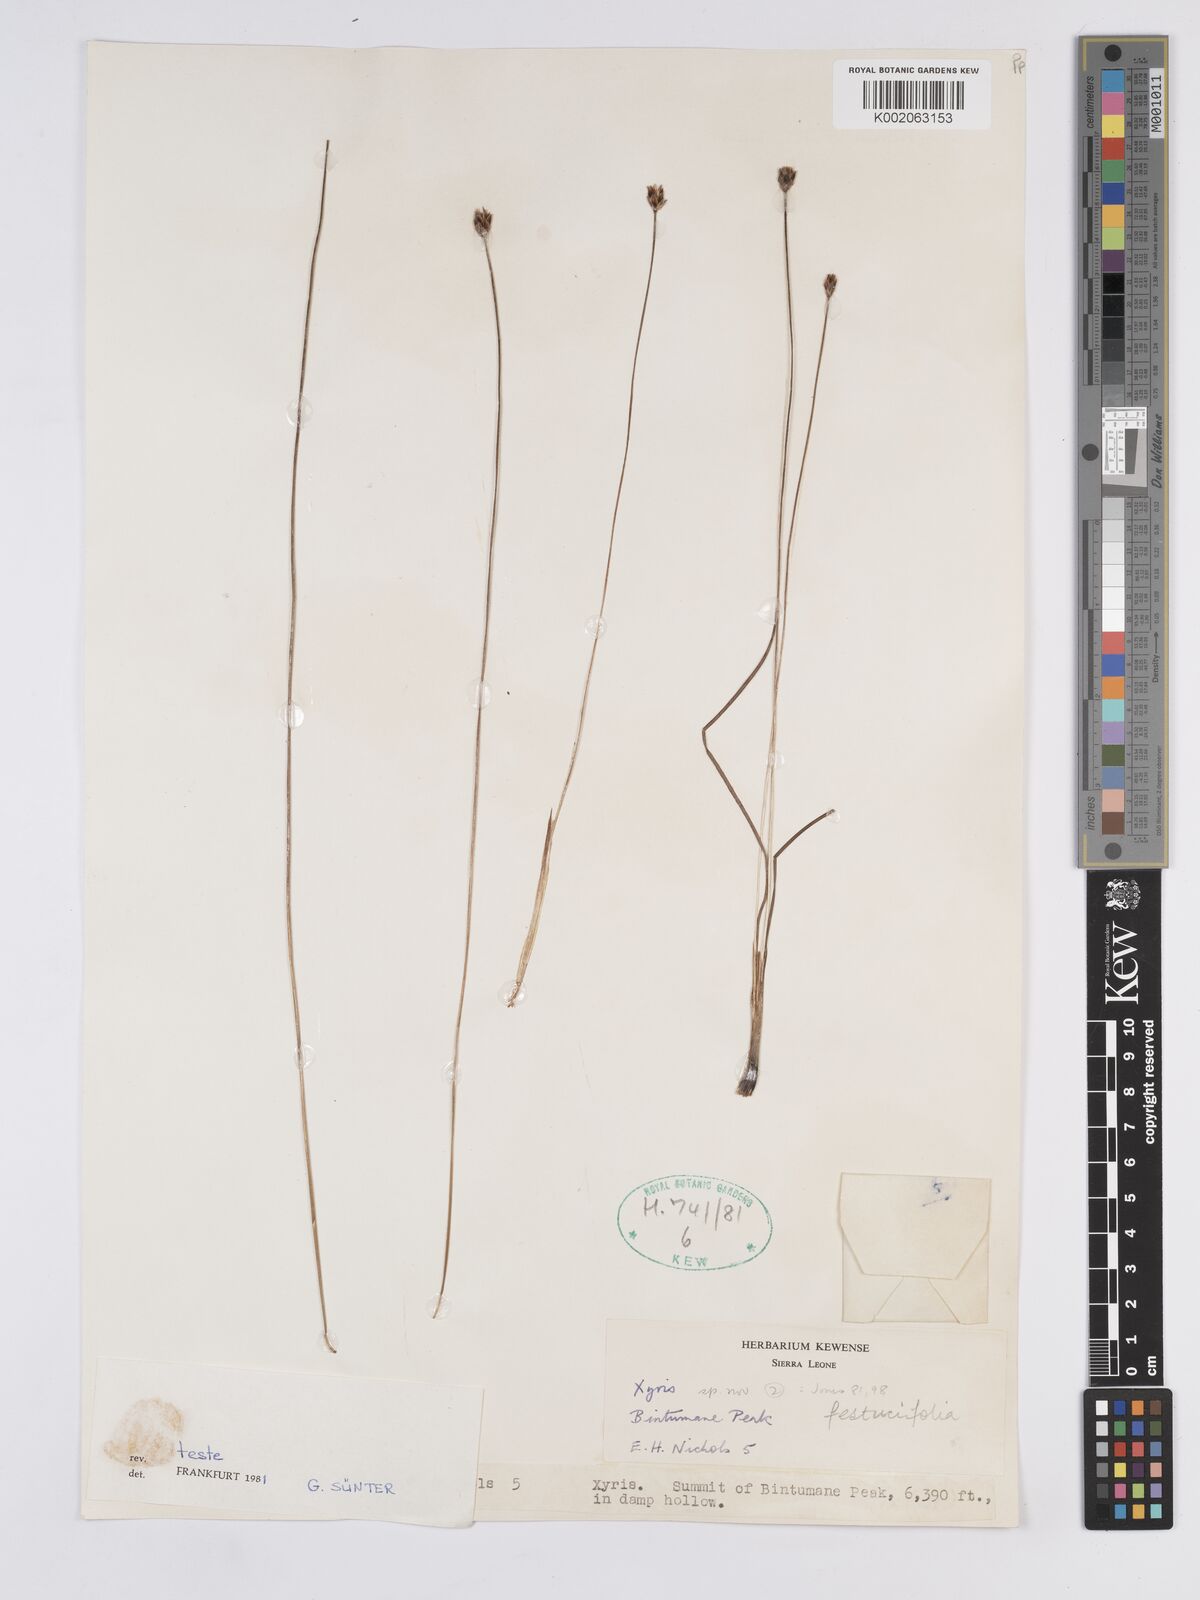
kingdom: Plantae
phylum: Tracheophyta
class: Liliopsida
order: Poales
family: Xyridaceae
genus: Xyris
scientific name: Xyris festucifolia
